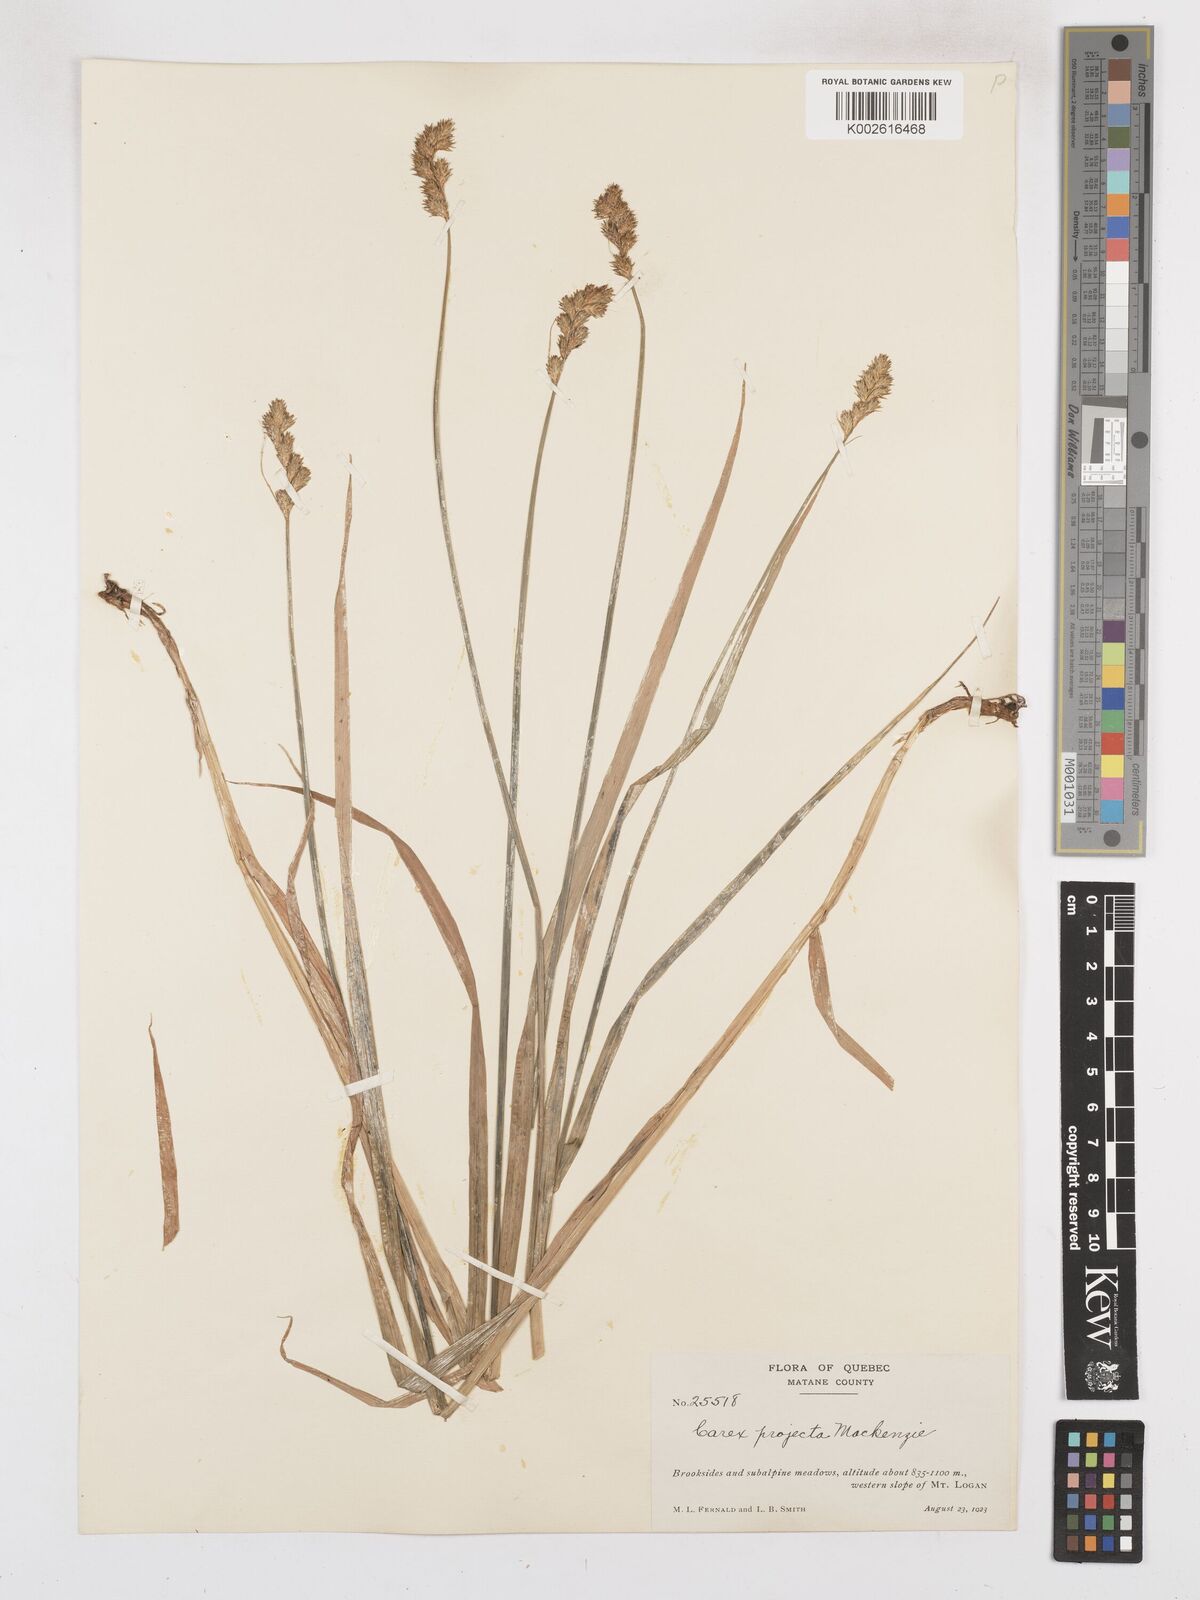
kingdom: Plantae
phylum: Tracheophyta
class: Liliopsida
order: Poales
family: Cyperaceae
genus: Carex
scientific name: Carex projecta
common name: Loose-headed oval sedge
